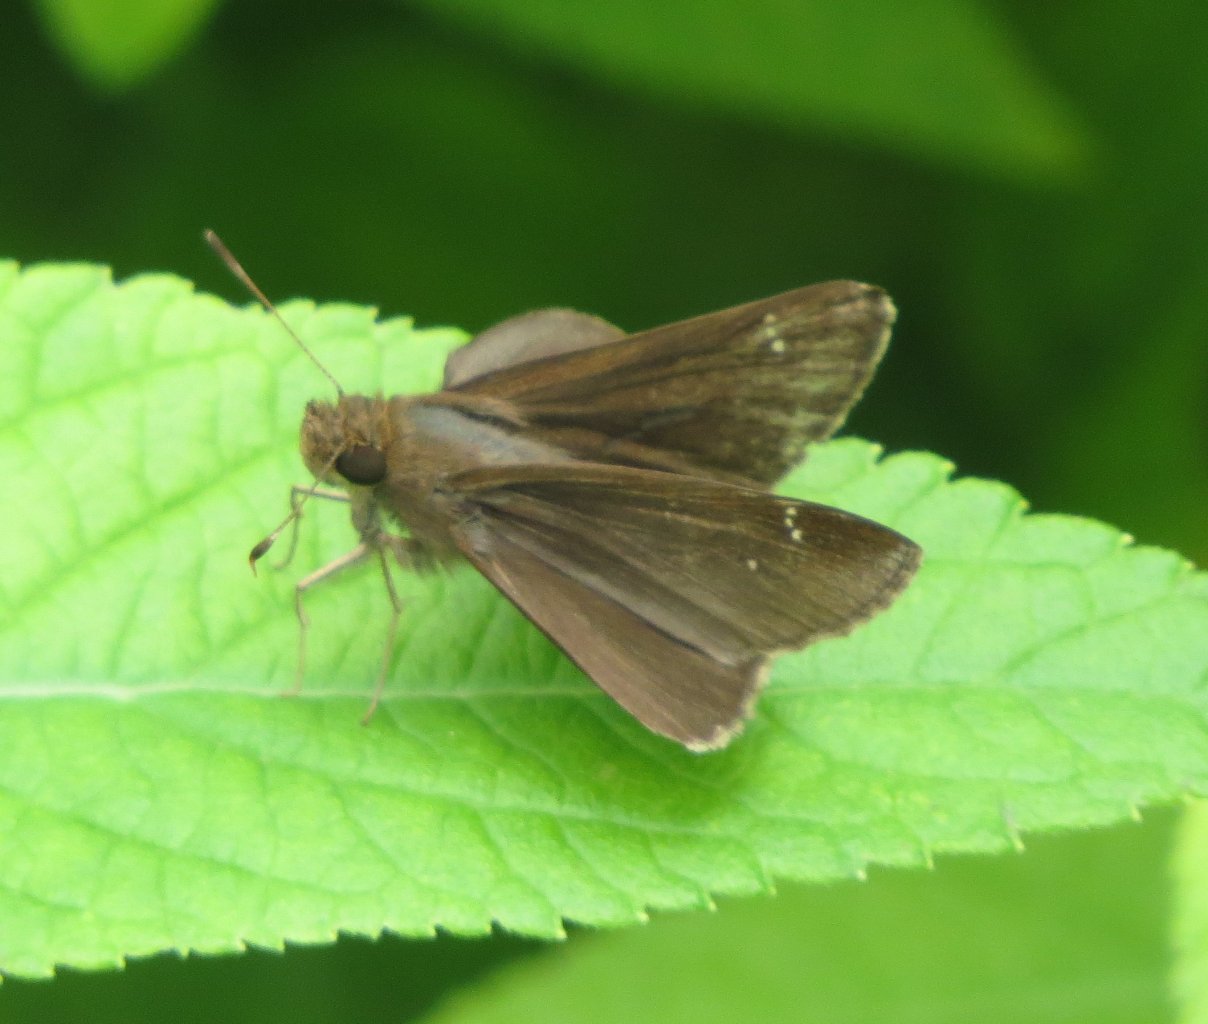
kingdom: Animalia
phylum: Arthropoda
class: Insecta
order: Lepidoptera
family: Hesperiidae
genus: Lerema
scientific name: Lerema accius
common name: Clouded Skipper
